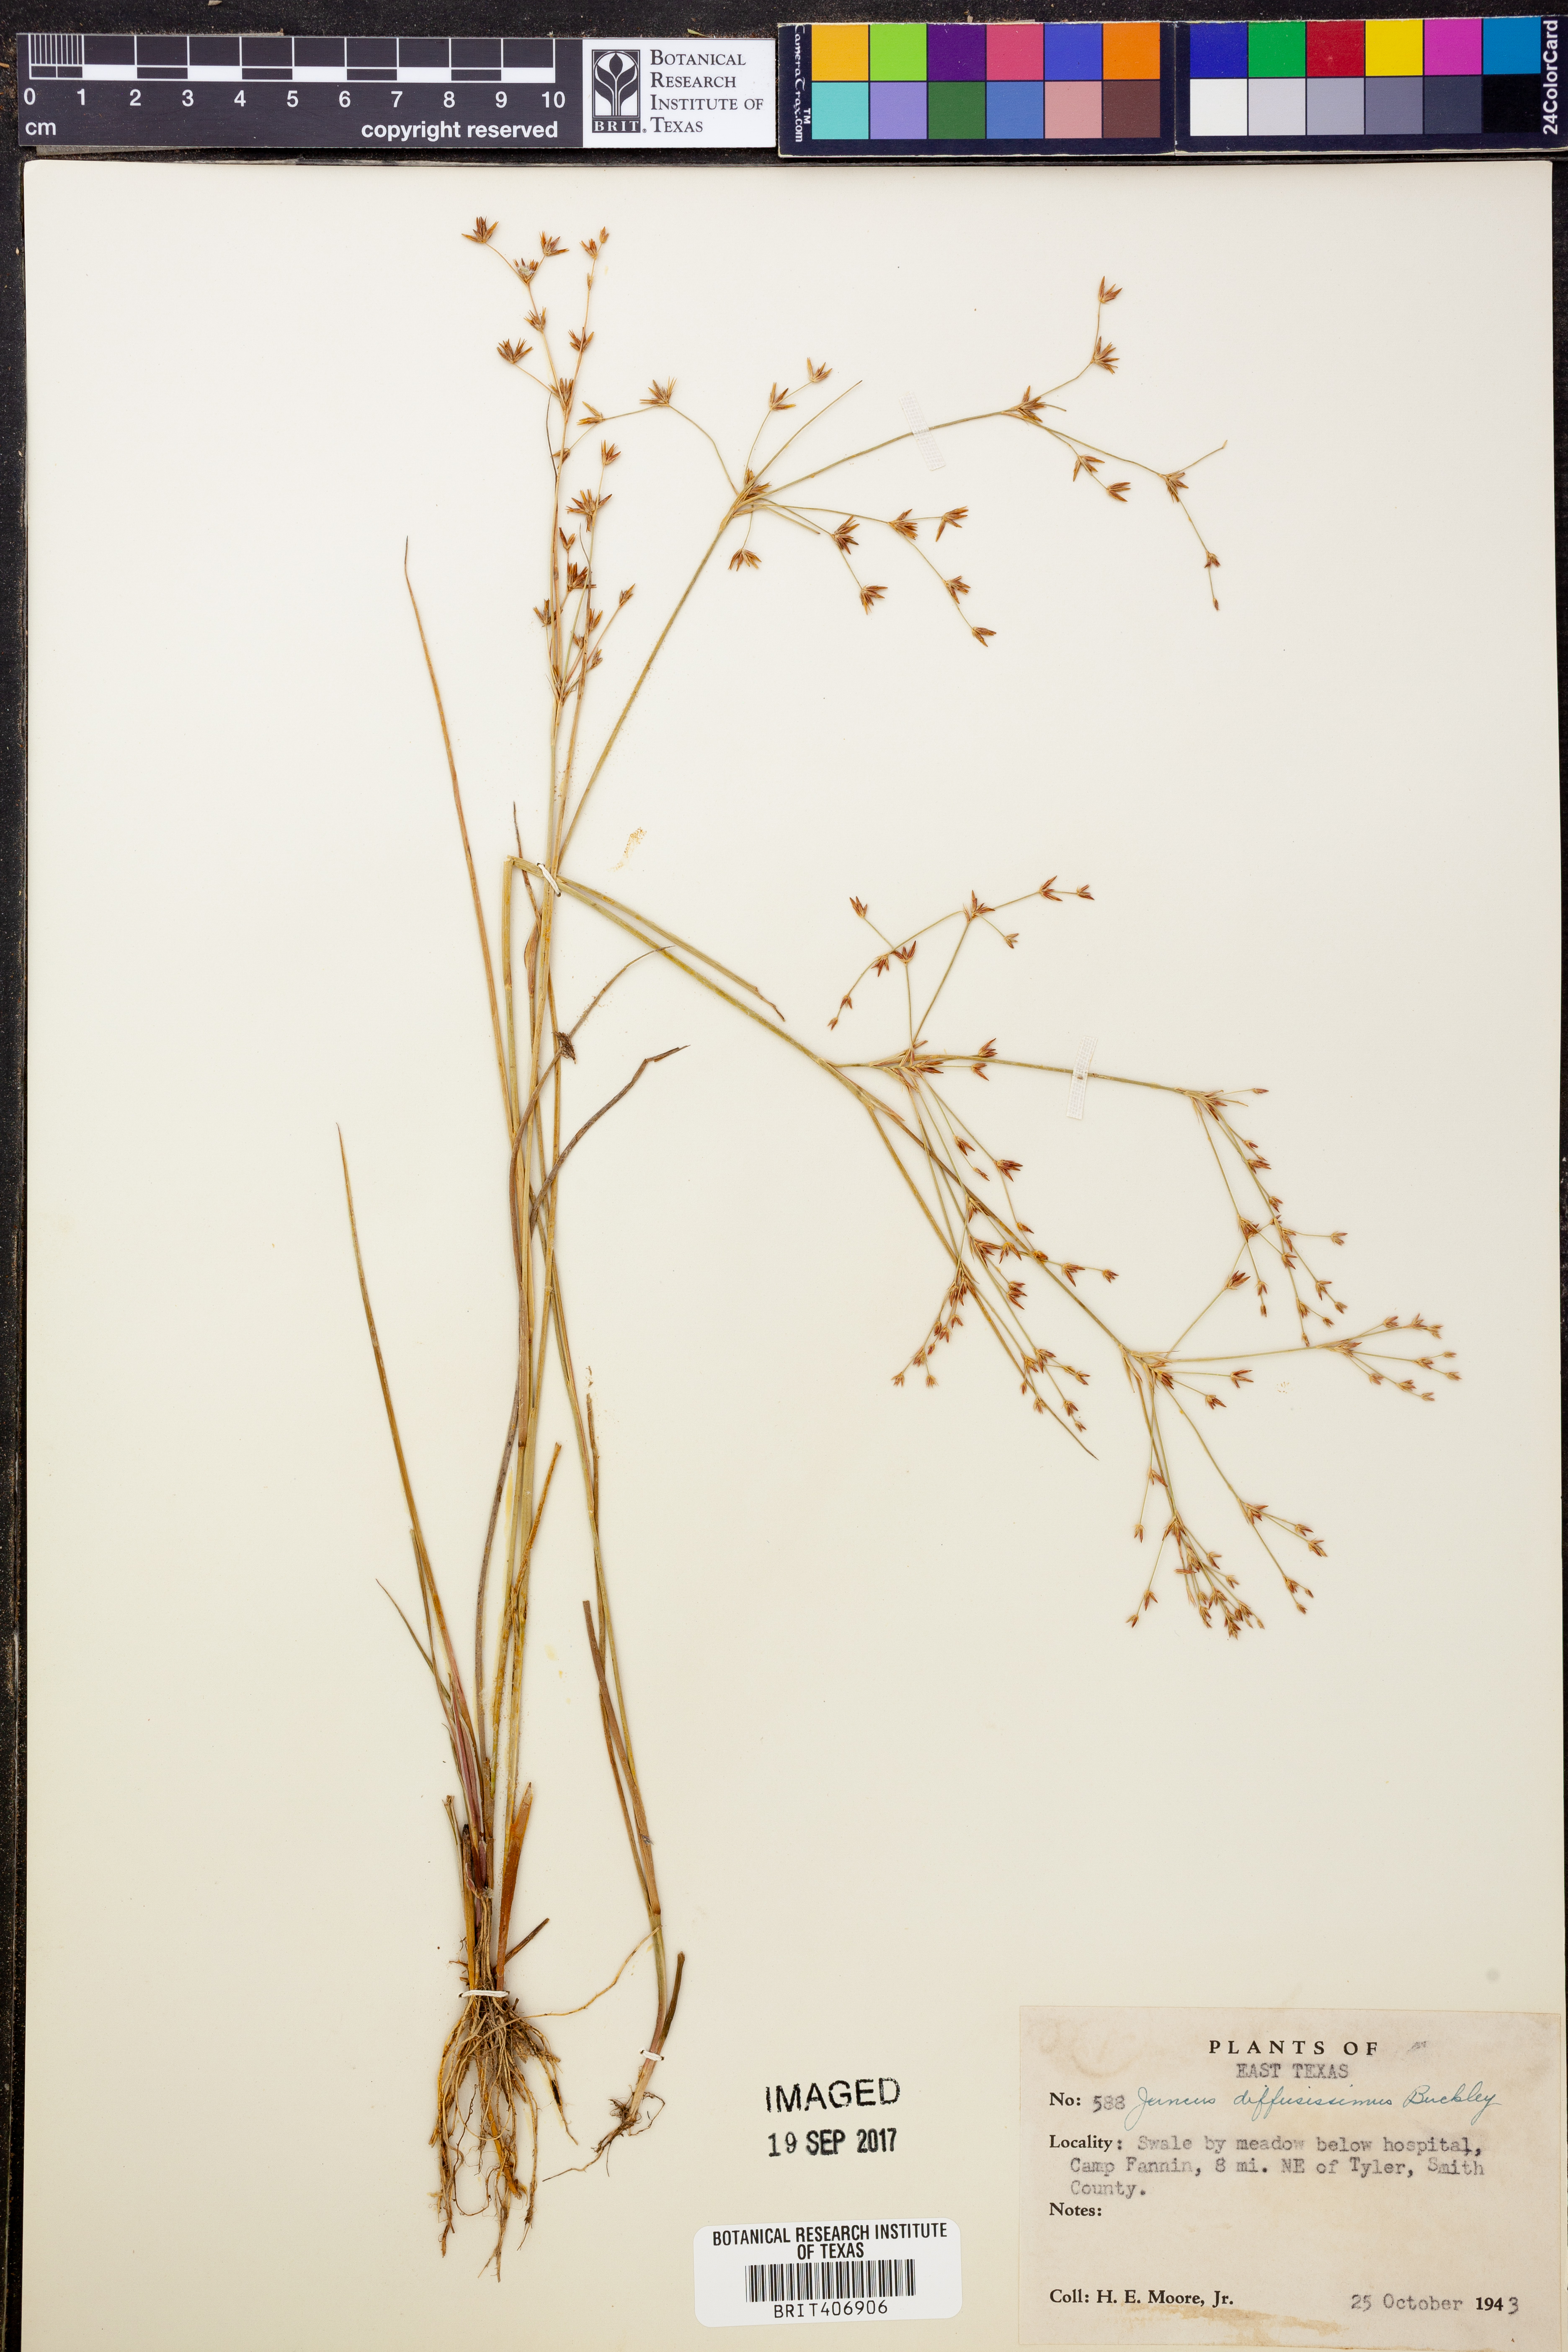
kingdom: Plantae
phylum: Tracheophyta
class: Liliopsida
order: Poales
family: Juncaceae
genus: Juncus
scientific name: Juncus diffusissimus
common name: Slimpod rush
